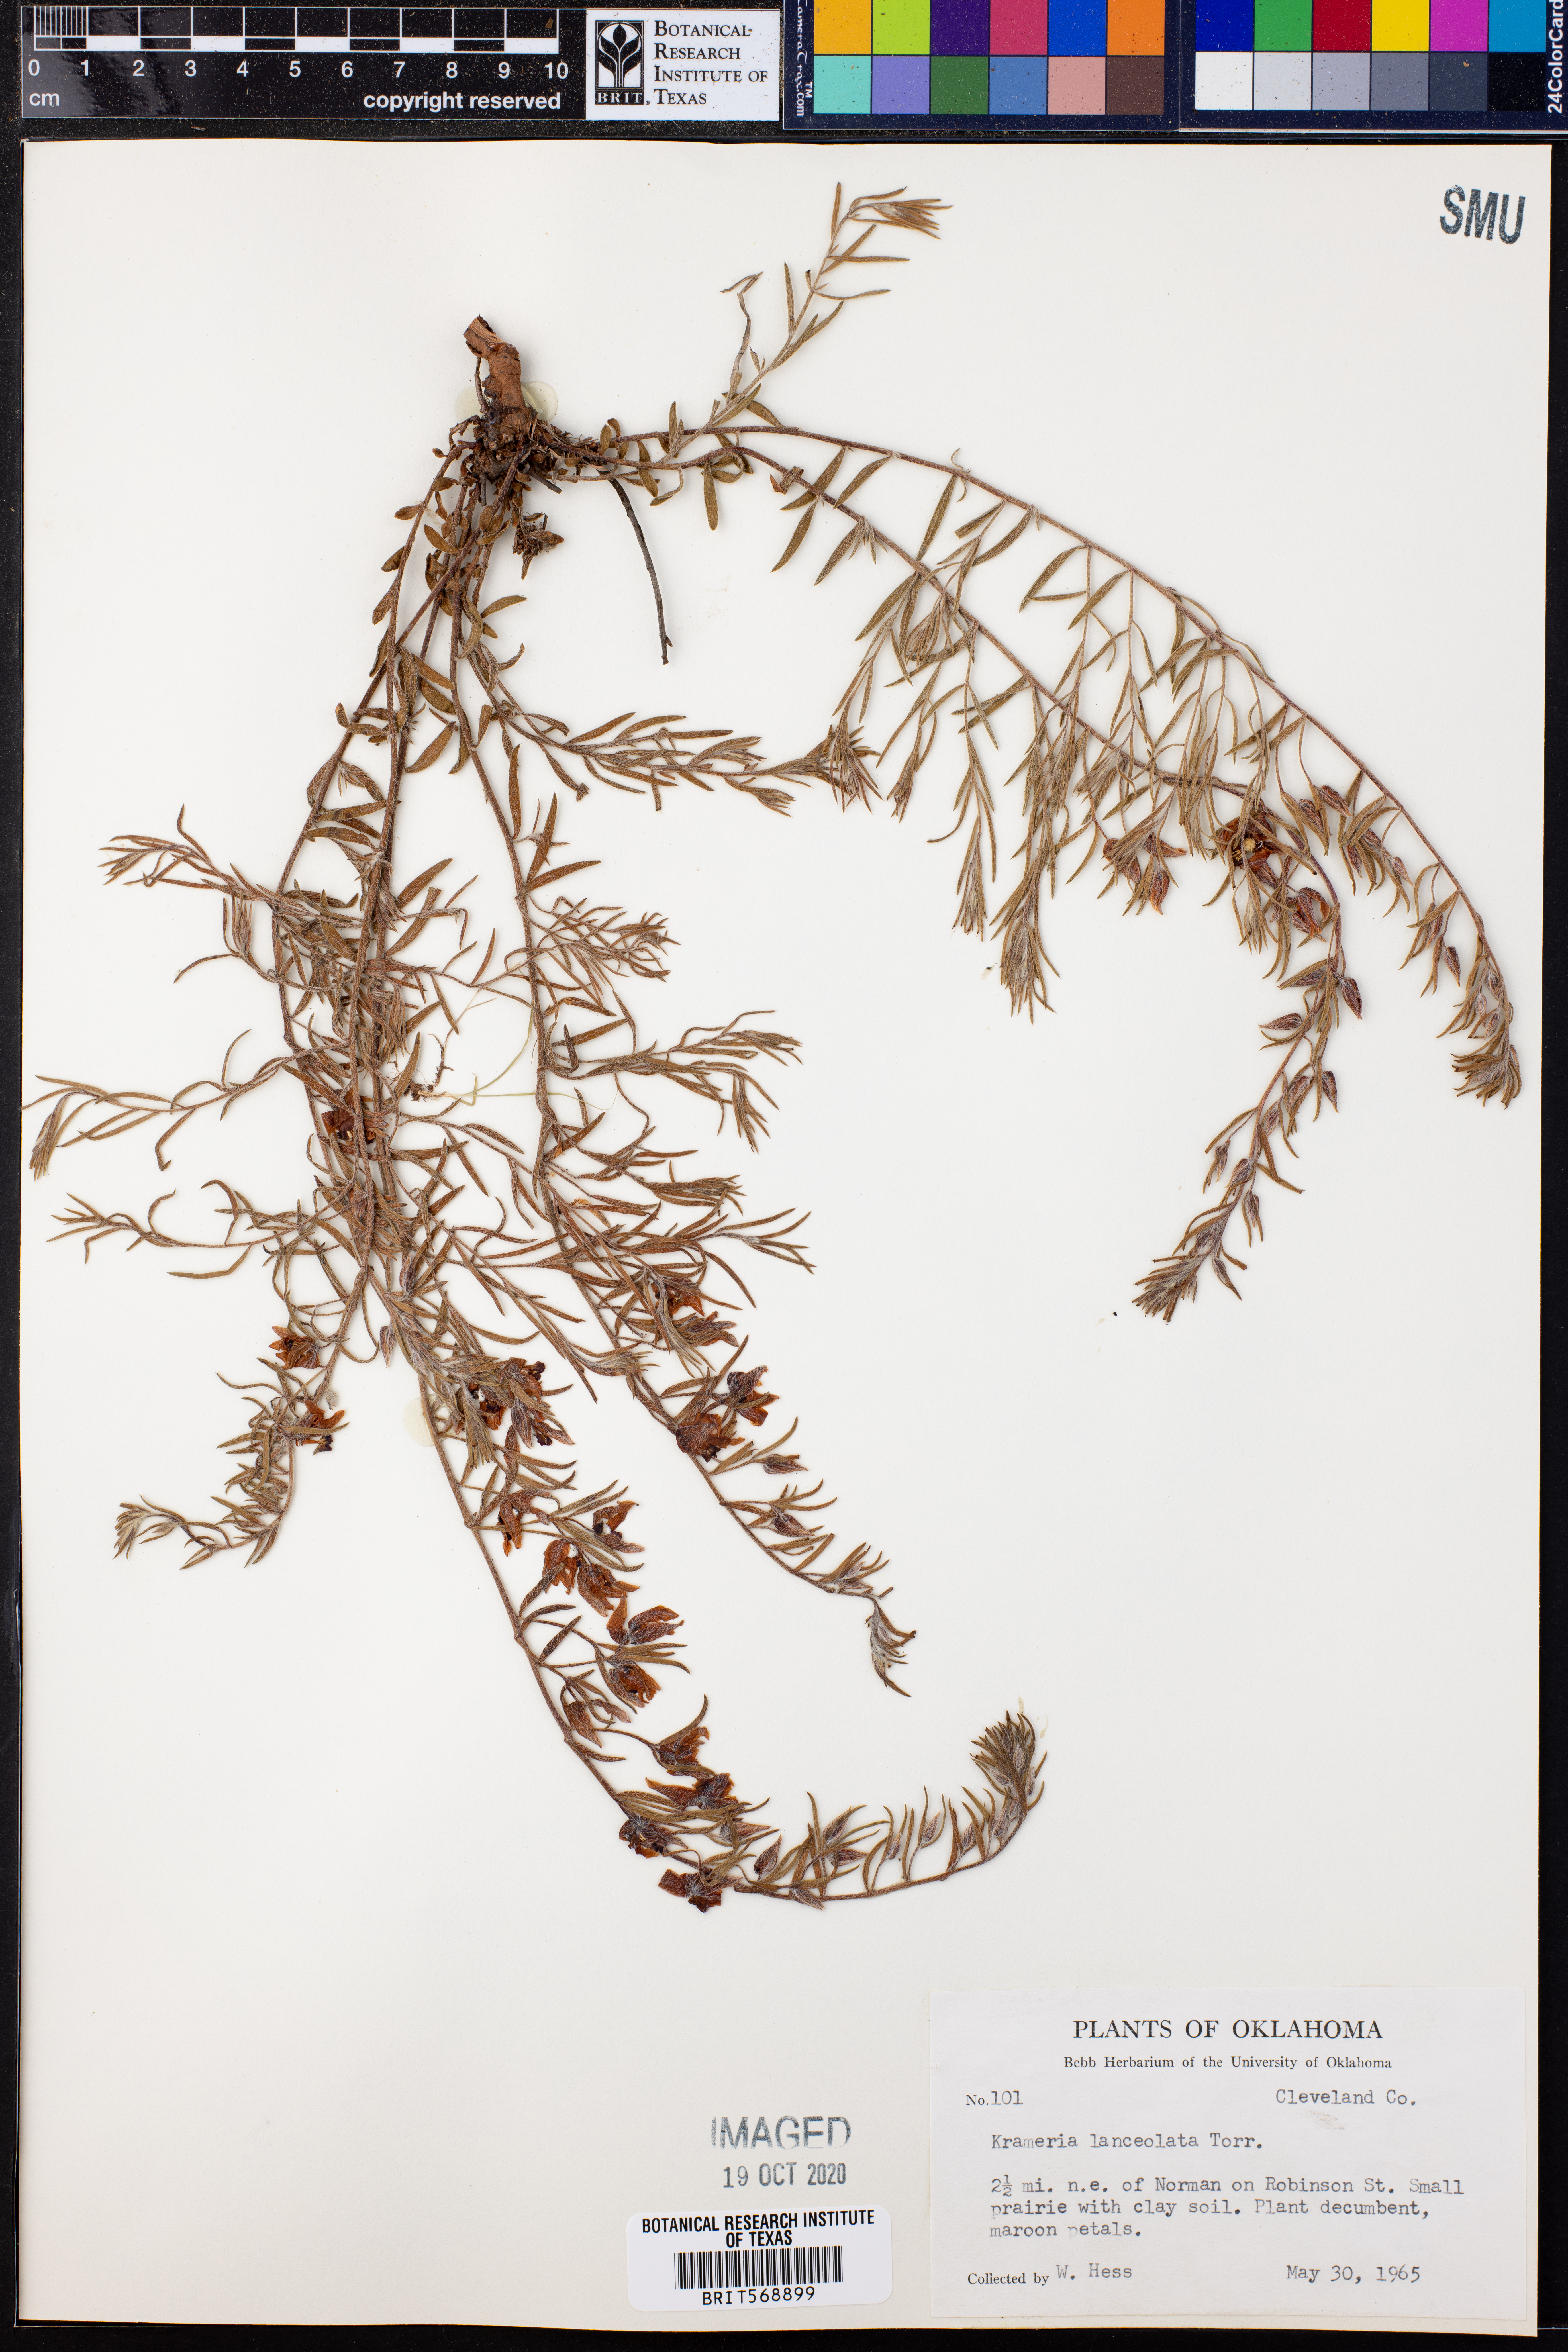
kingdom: Plantae
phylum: Tracheophyta
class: Magnoliopsida
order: Zygophyllales
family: Krameriaceae
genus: Krameria
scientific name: Krameria lanceolata
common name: Ratany
